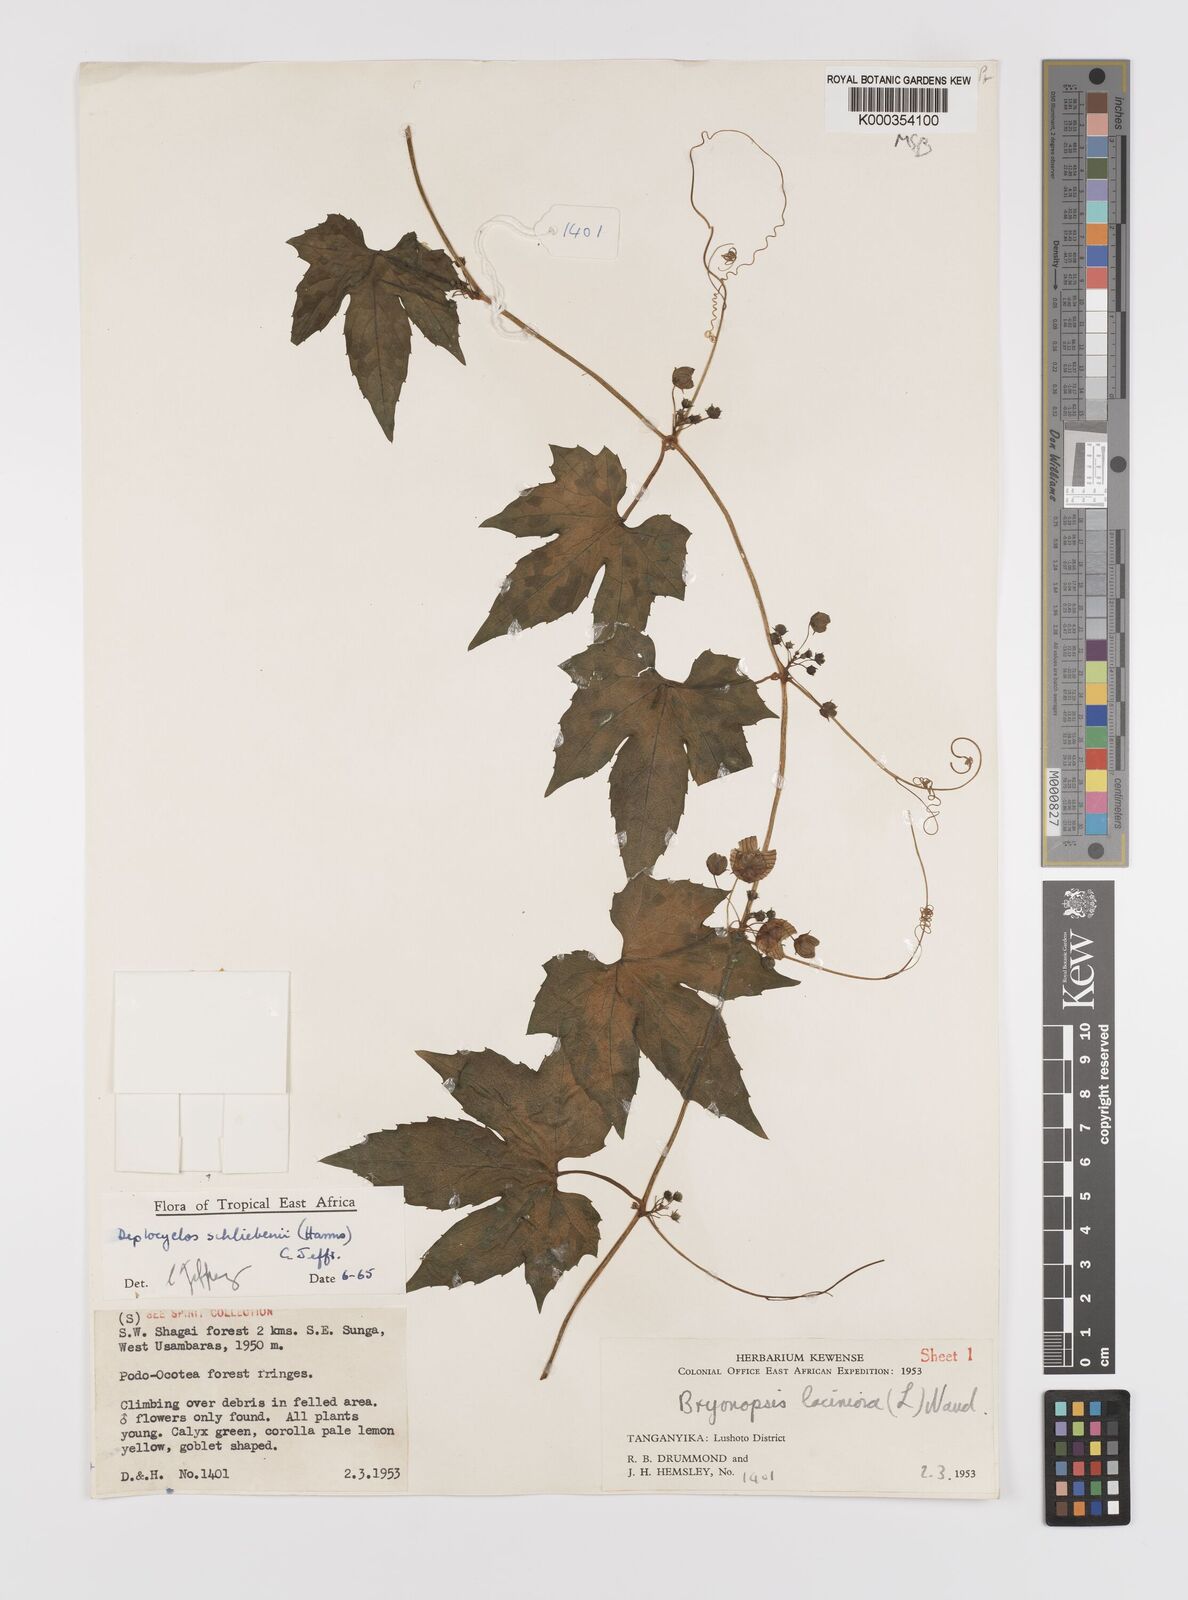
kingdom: Plantae
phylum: Tracheophyta
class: Magnoliopsida
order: Cucurbitales
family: Cucurbitaceae
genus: Diplocyclos
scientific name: Diplocyclos schliebenii
